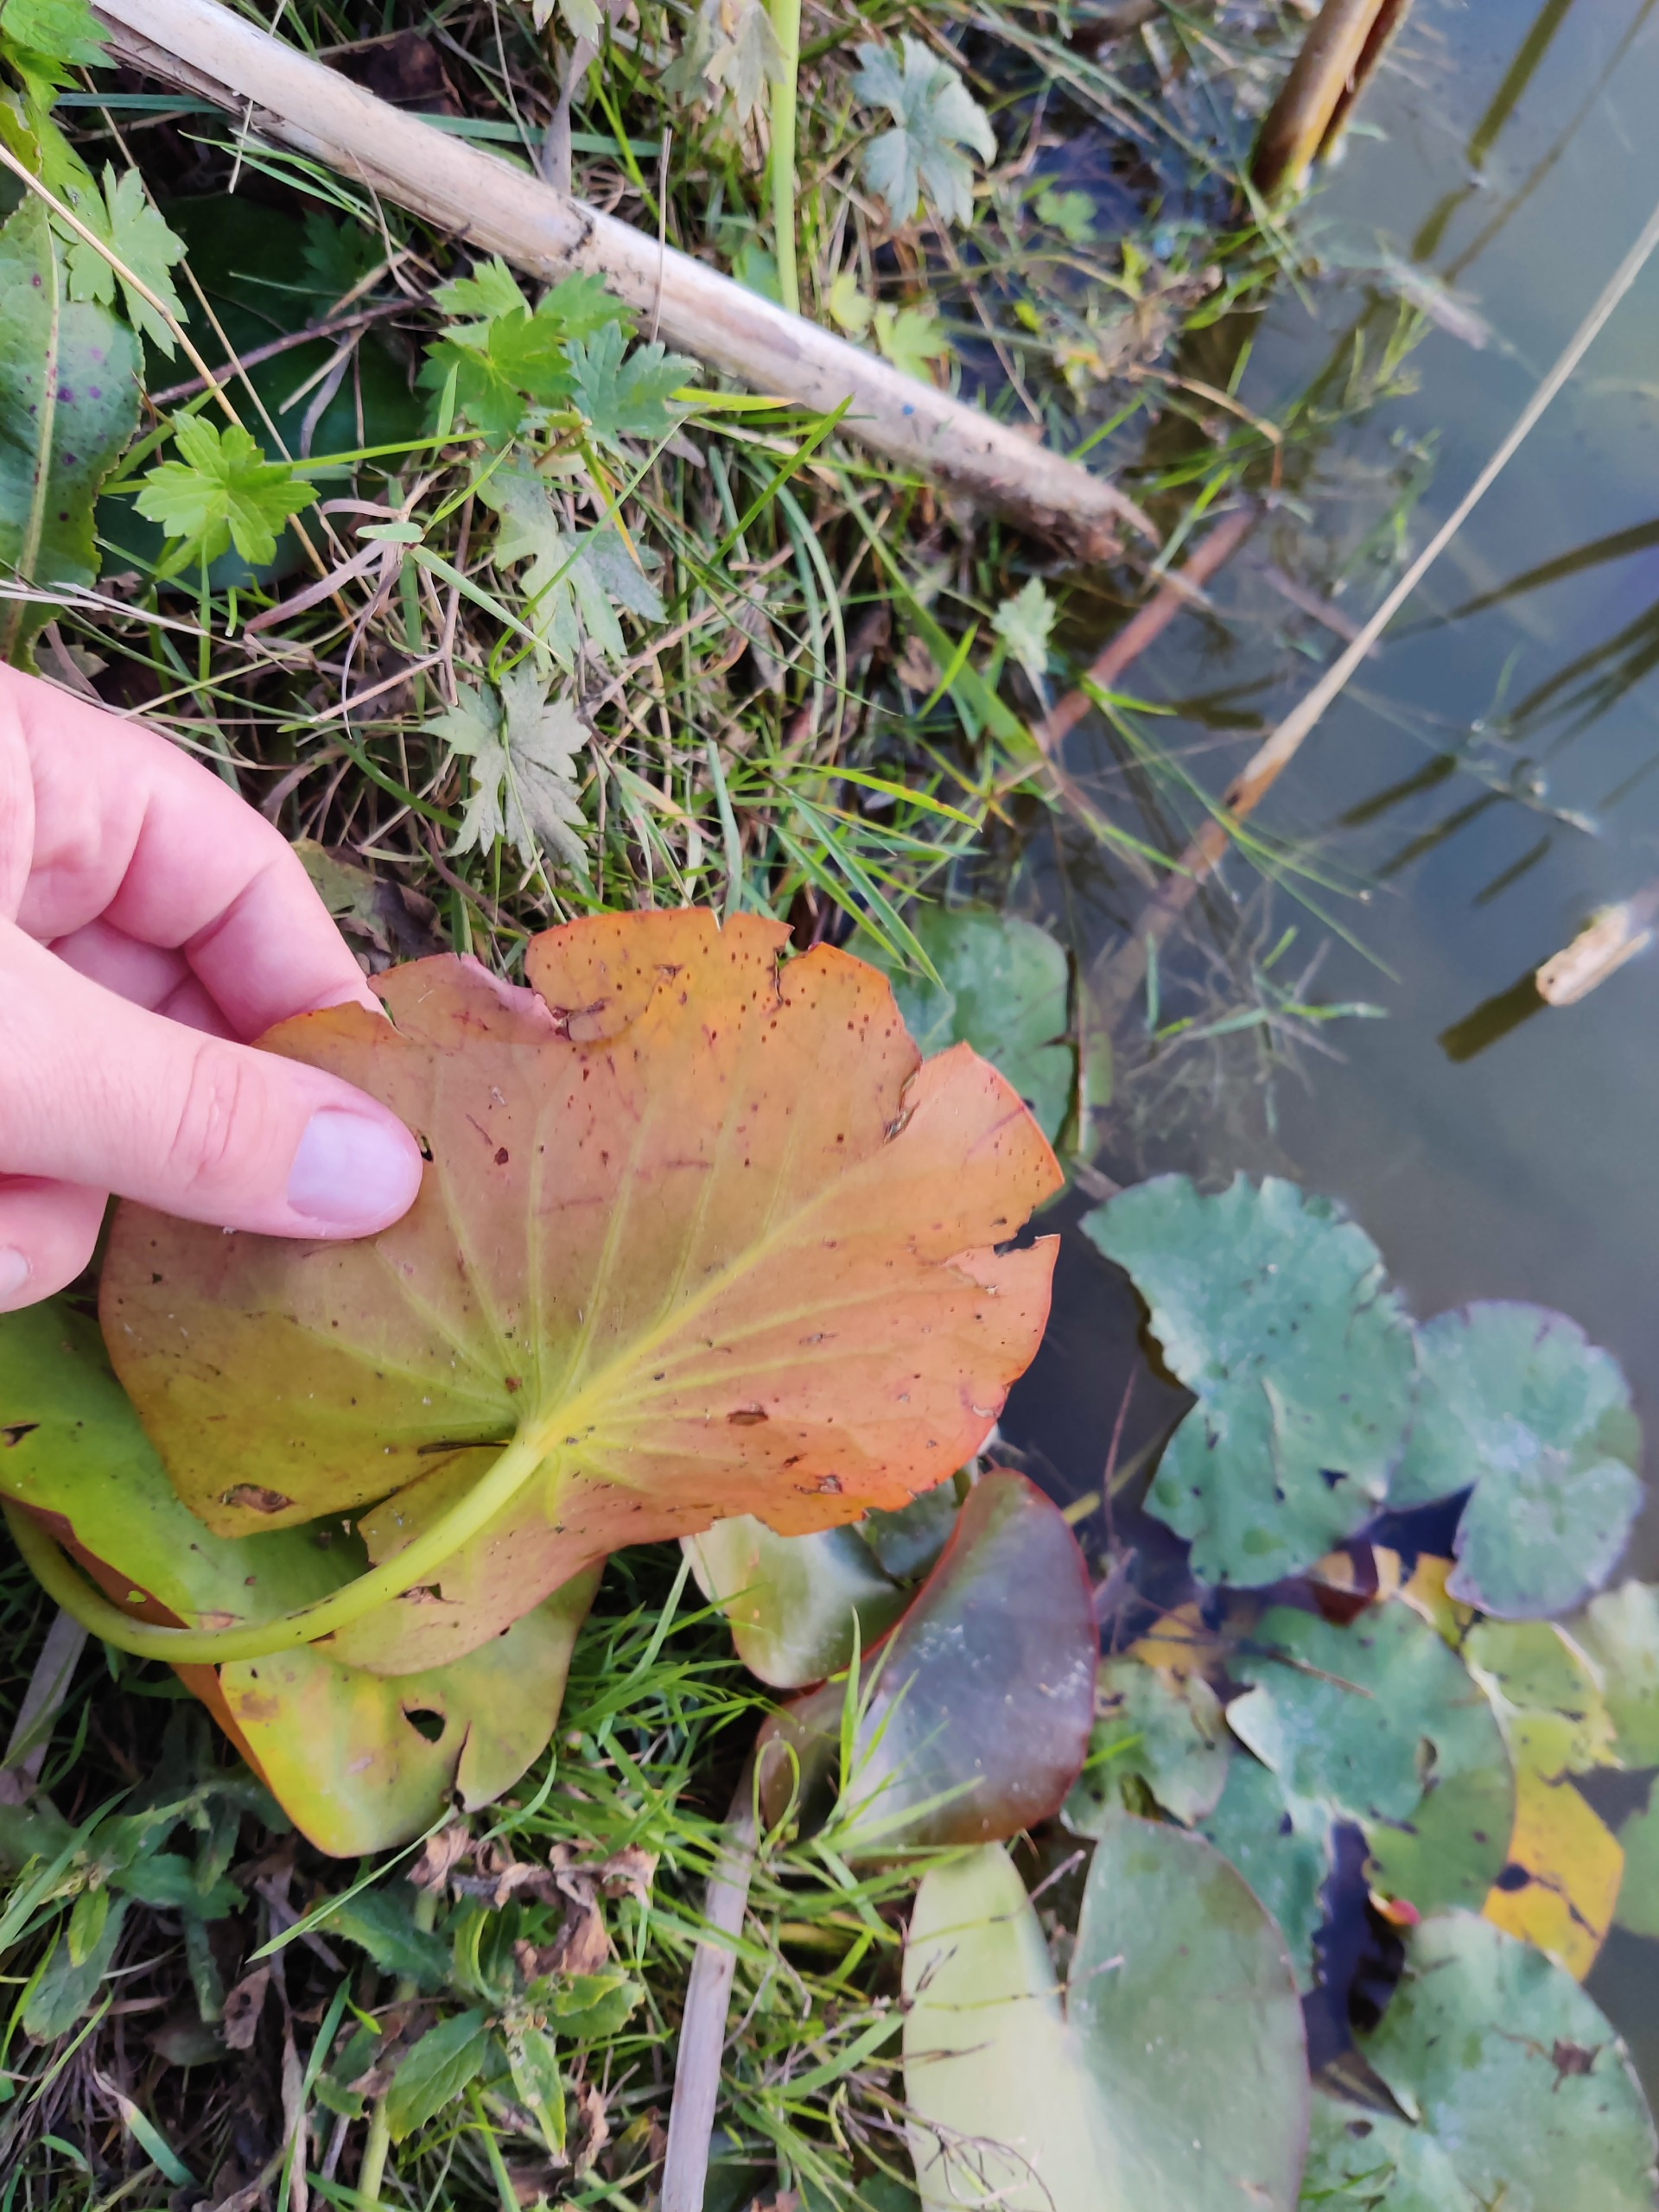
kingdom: Plantae
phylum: Tracheophyta
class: Magnoliopsida
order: Nymphaeales
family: Nymphaeaceae
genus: Nymphaea
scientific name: Nymphaea alba
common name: Hvid åkande
